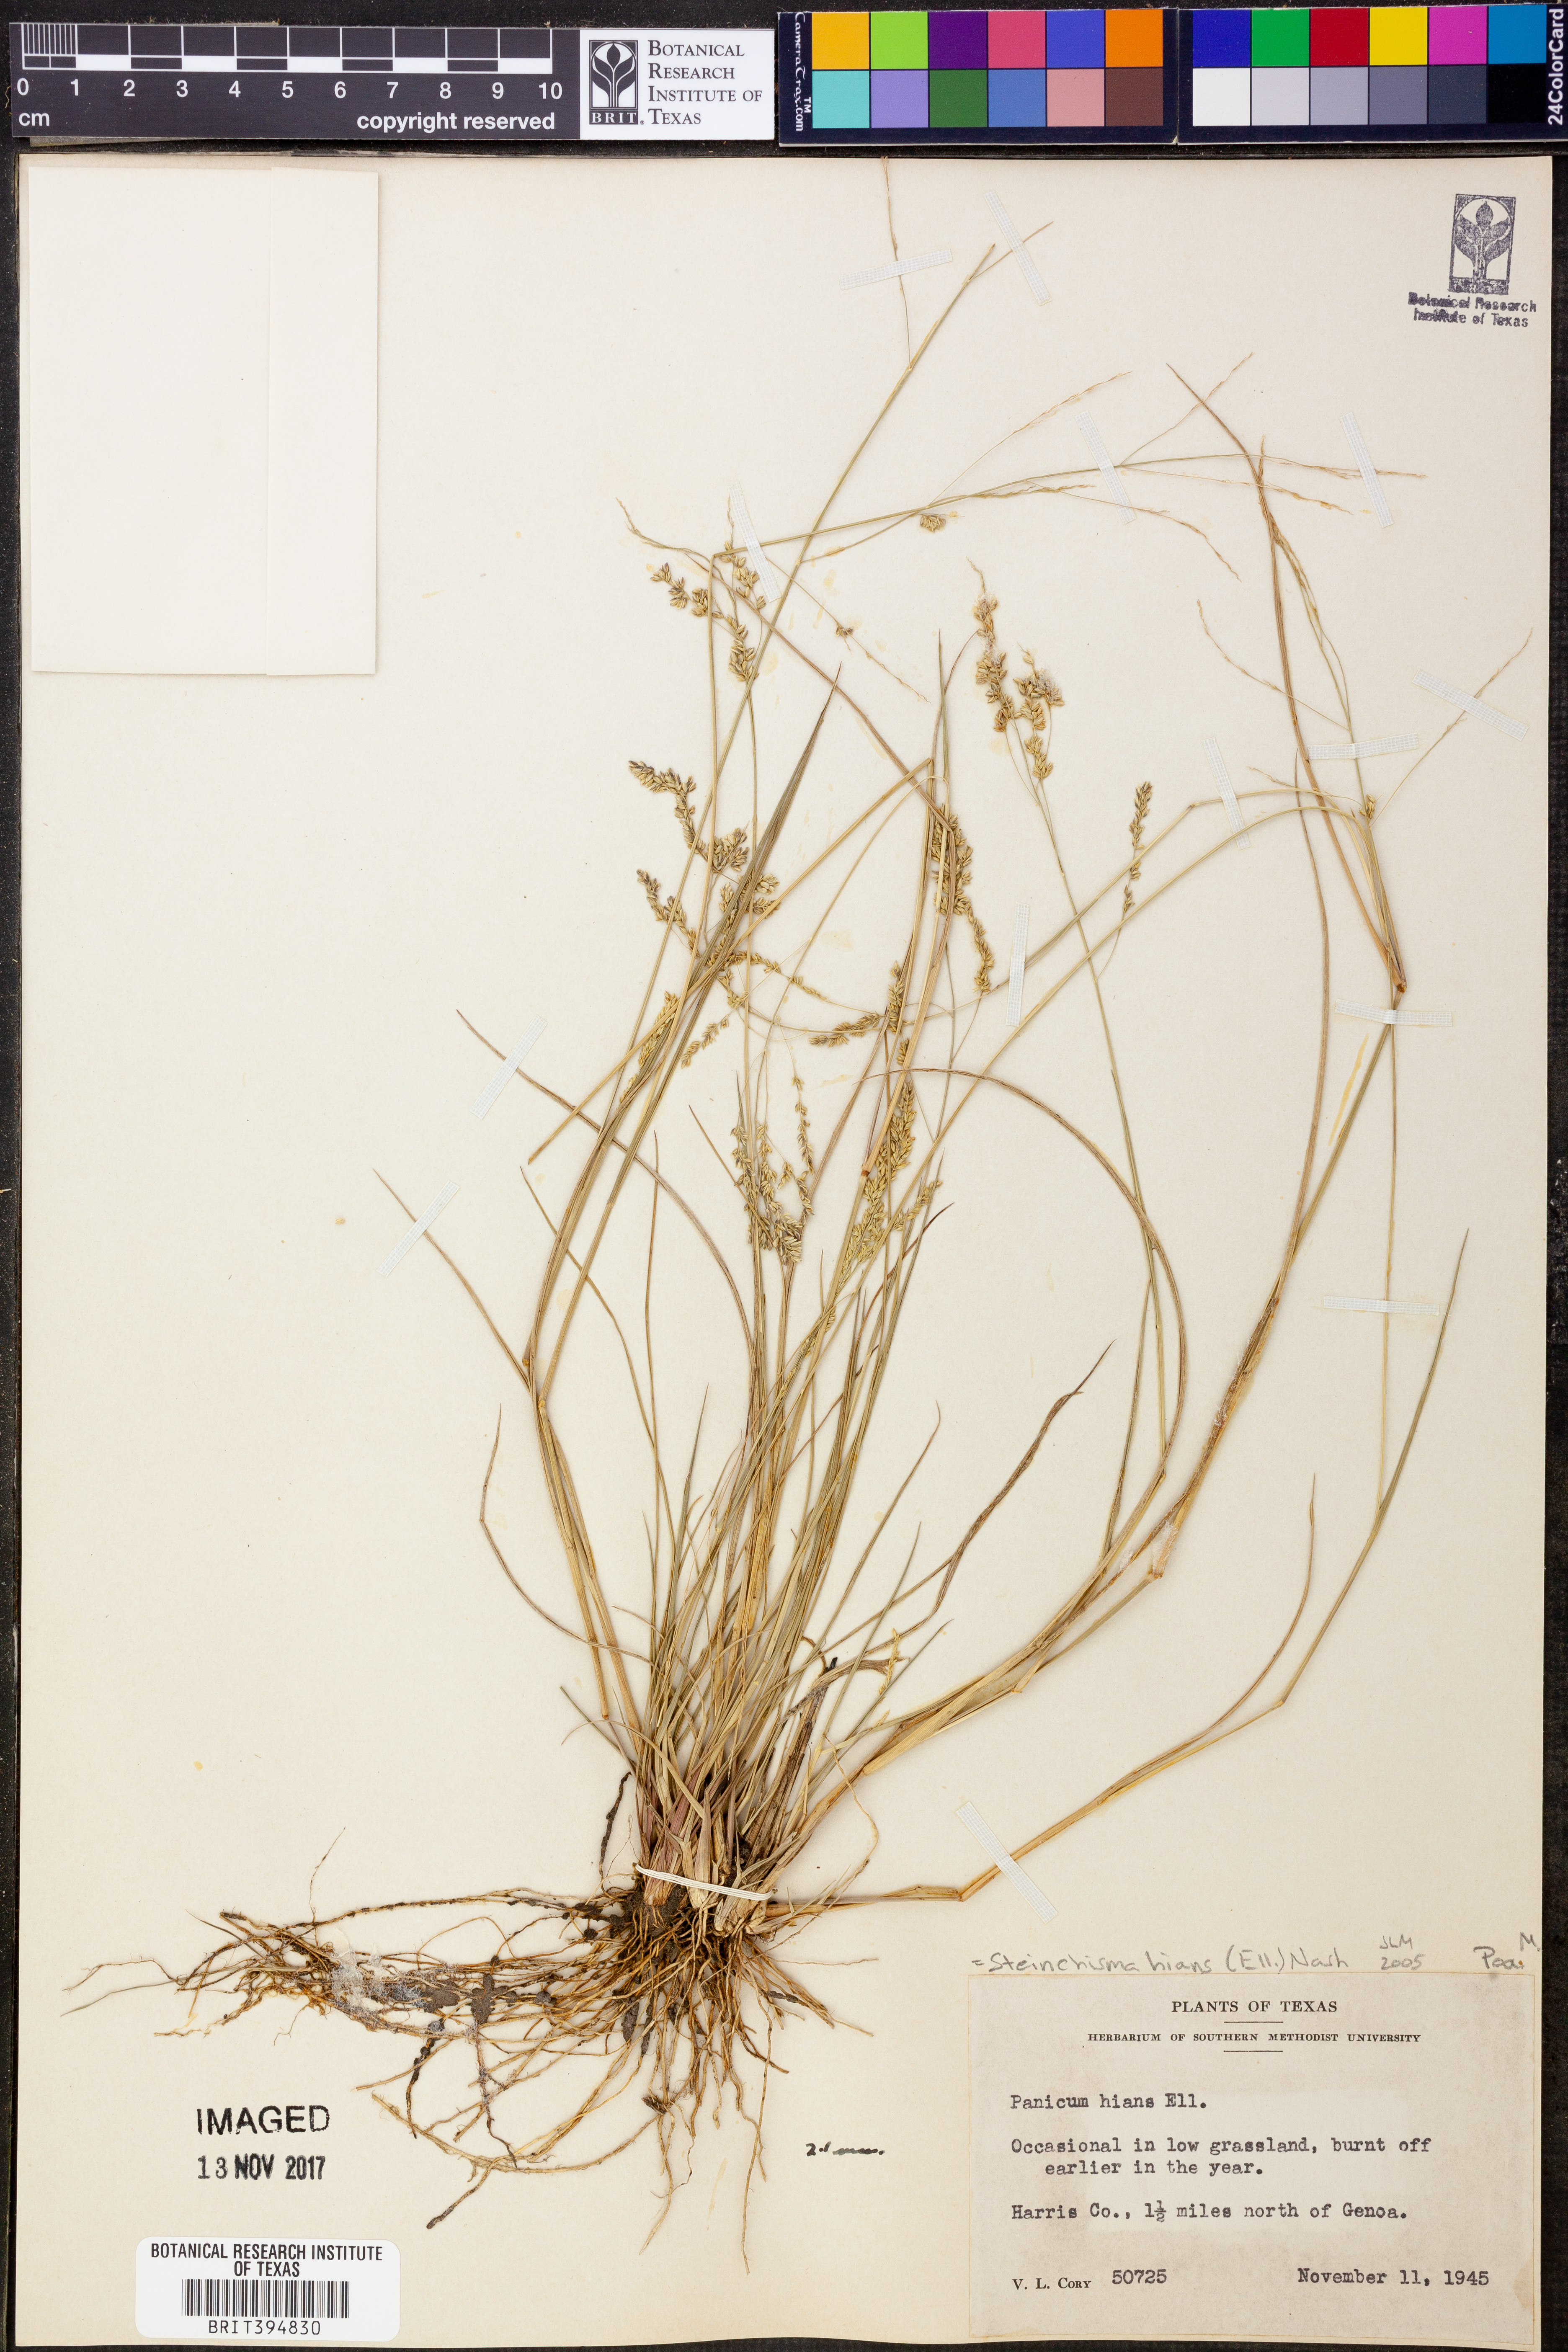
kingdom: Plantae
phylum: Tracheophyta
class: Liliopsida
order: Poales
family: Poaceae
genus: Steinchisma
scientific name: Steinchisma hians
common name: Gaping panic grass
